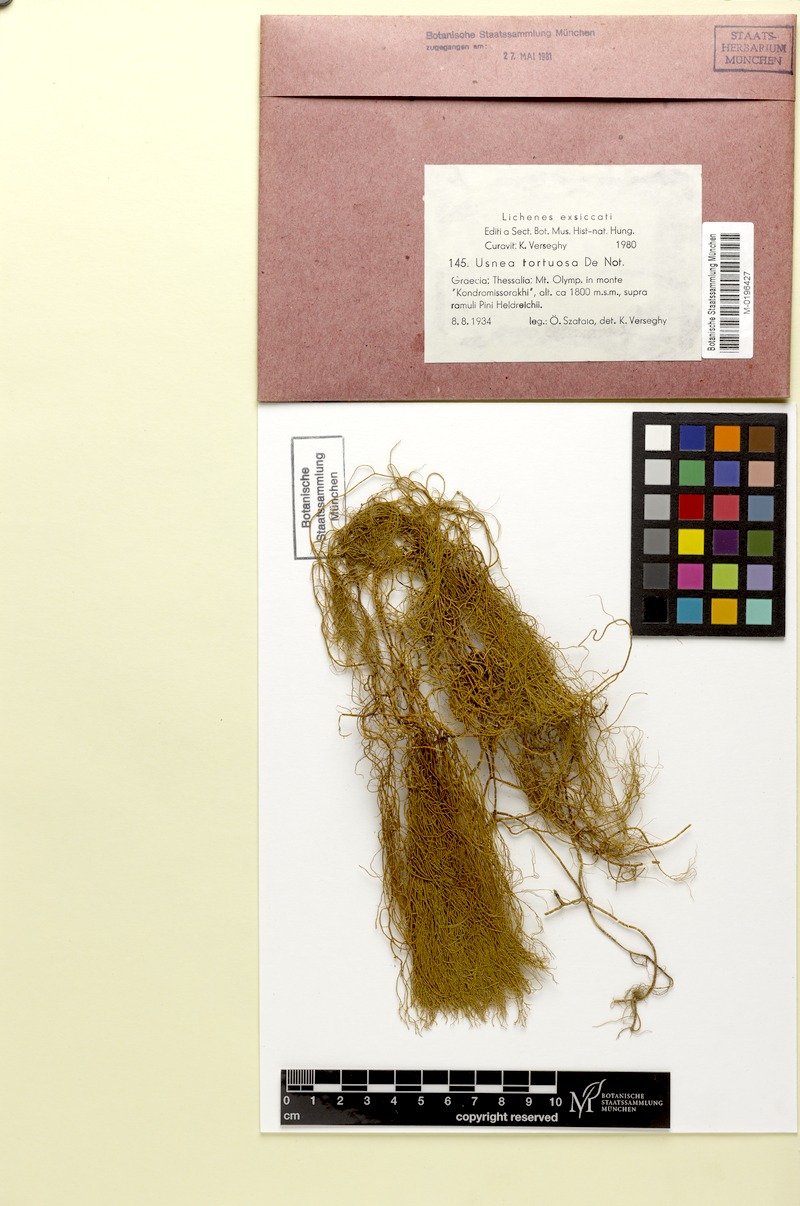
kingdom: Fungi
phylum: Ascomycota
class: Lecanoromycetes
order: Lecanorales
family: Parmeliaceae
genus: Usnea
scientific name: Usnea tortuosa
